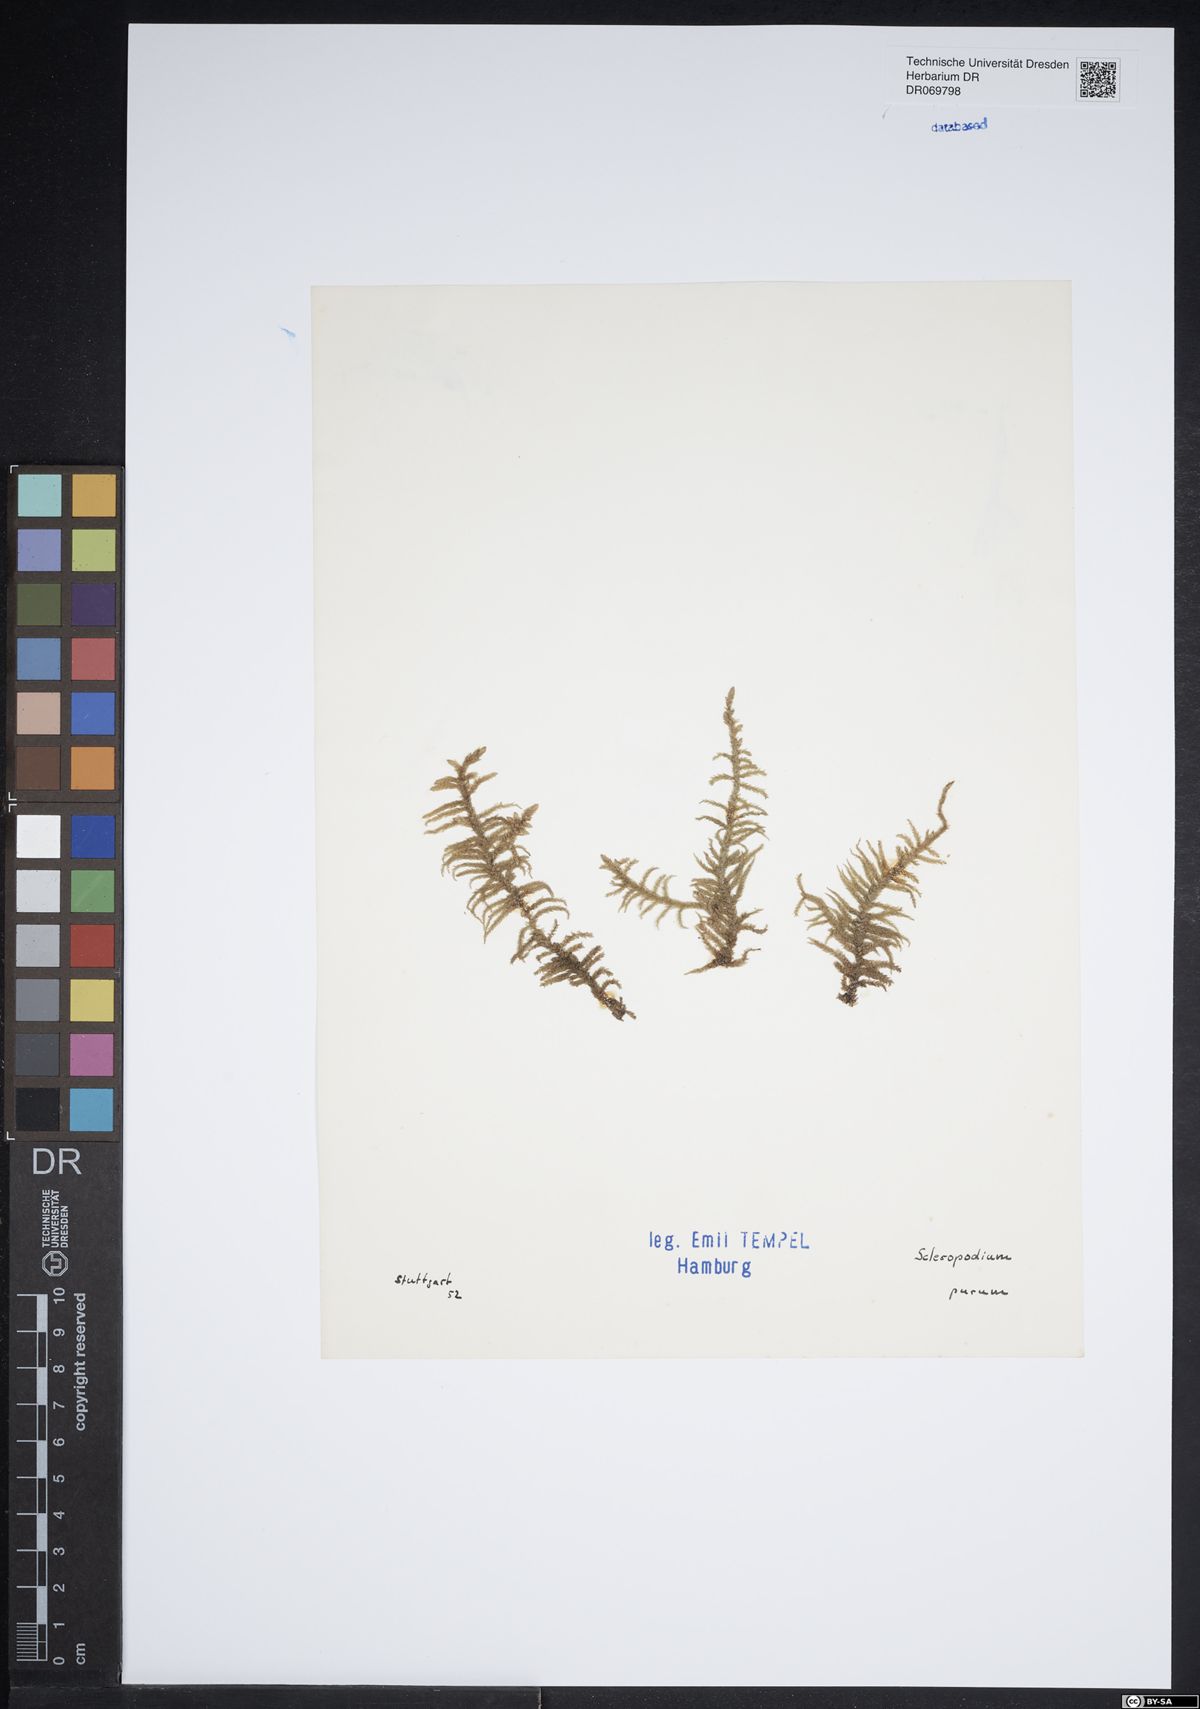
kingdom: Plantae
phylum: Bryophyta
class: Bryopsida
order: Hypnales
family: Brachytheciaceae
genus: Pseudoscleropodium
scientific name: Pseudoscleropodium purum
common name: Neat feather-moss
